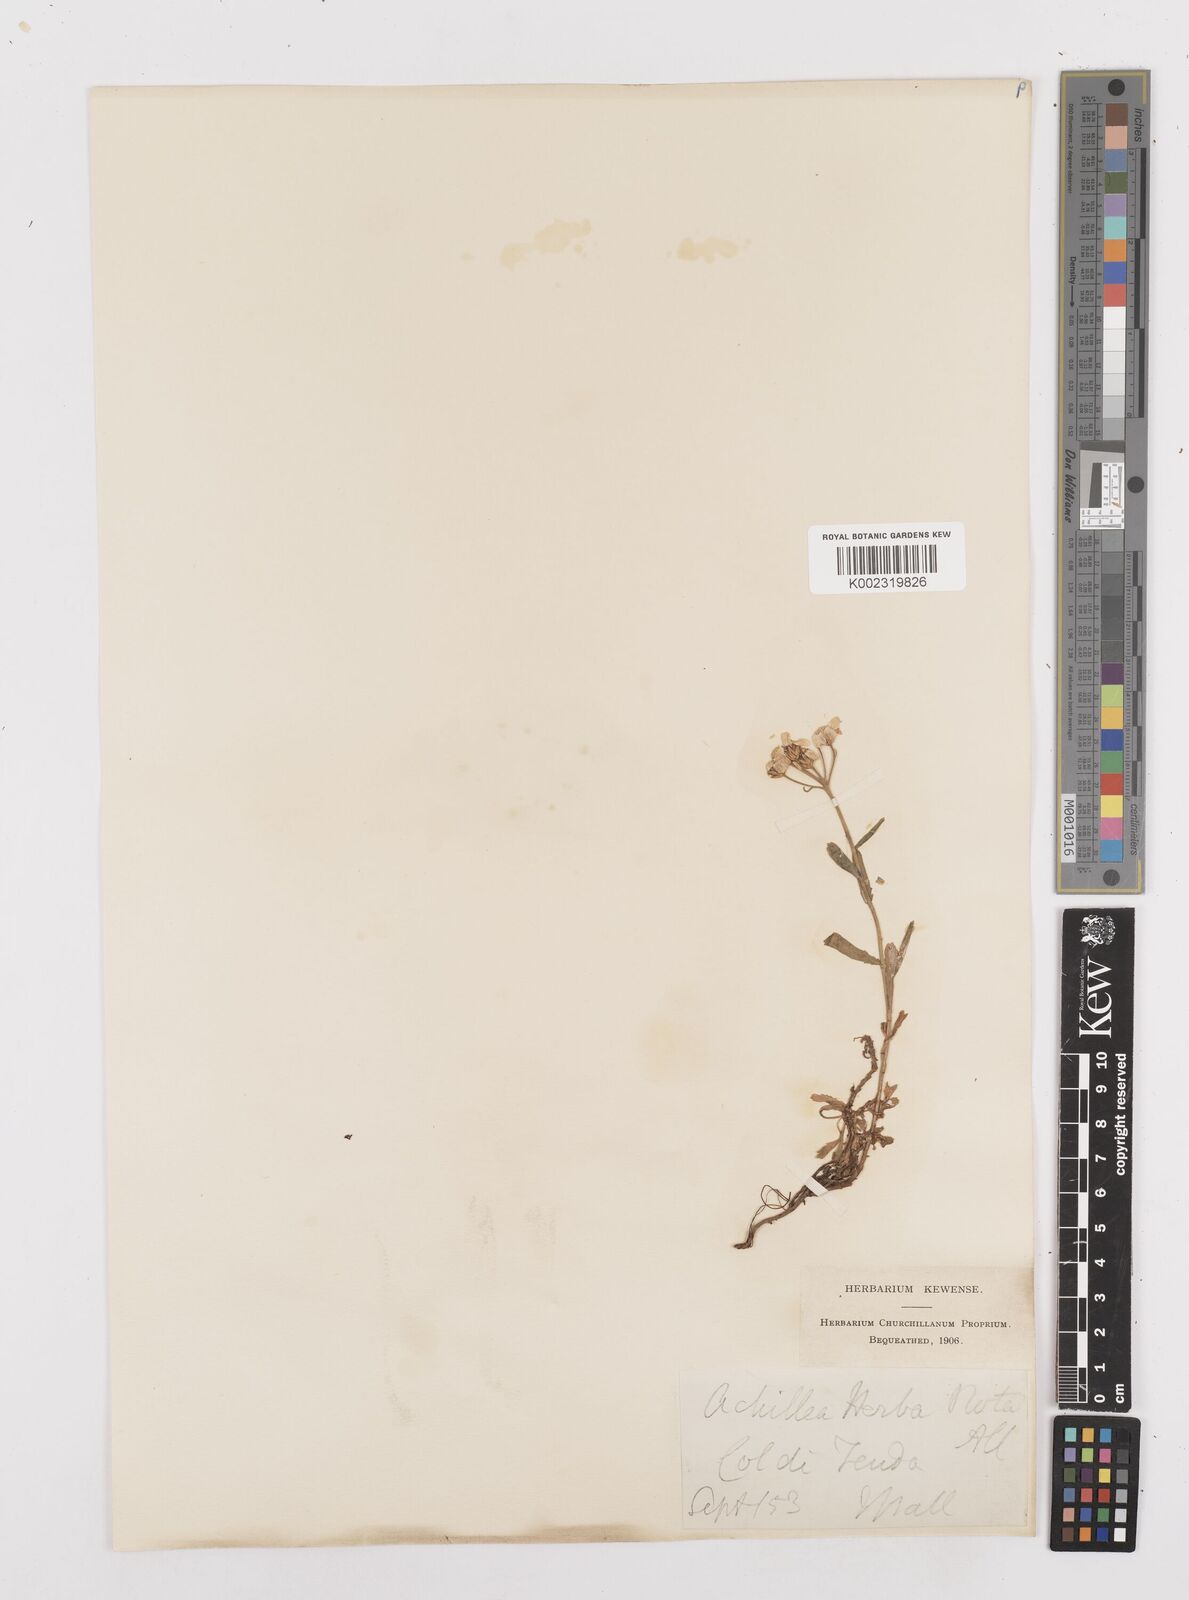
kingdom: Plantae
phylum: Tracheophyta
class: Magnoliopsida
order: Asterales
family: Asteraceae
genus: Achillea
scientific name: Achillea erba-rotta
